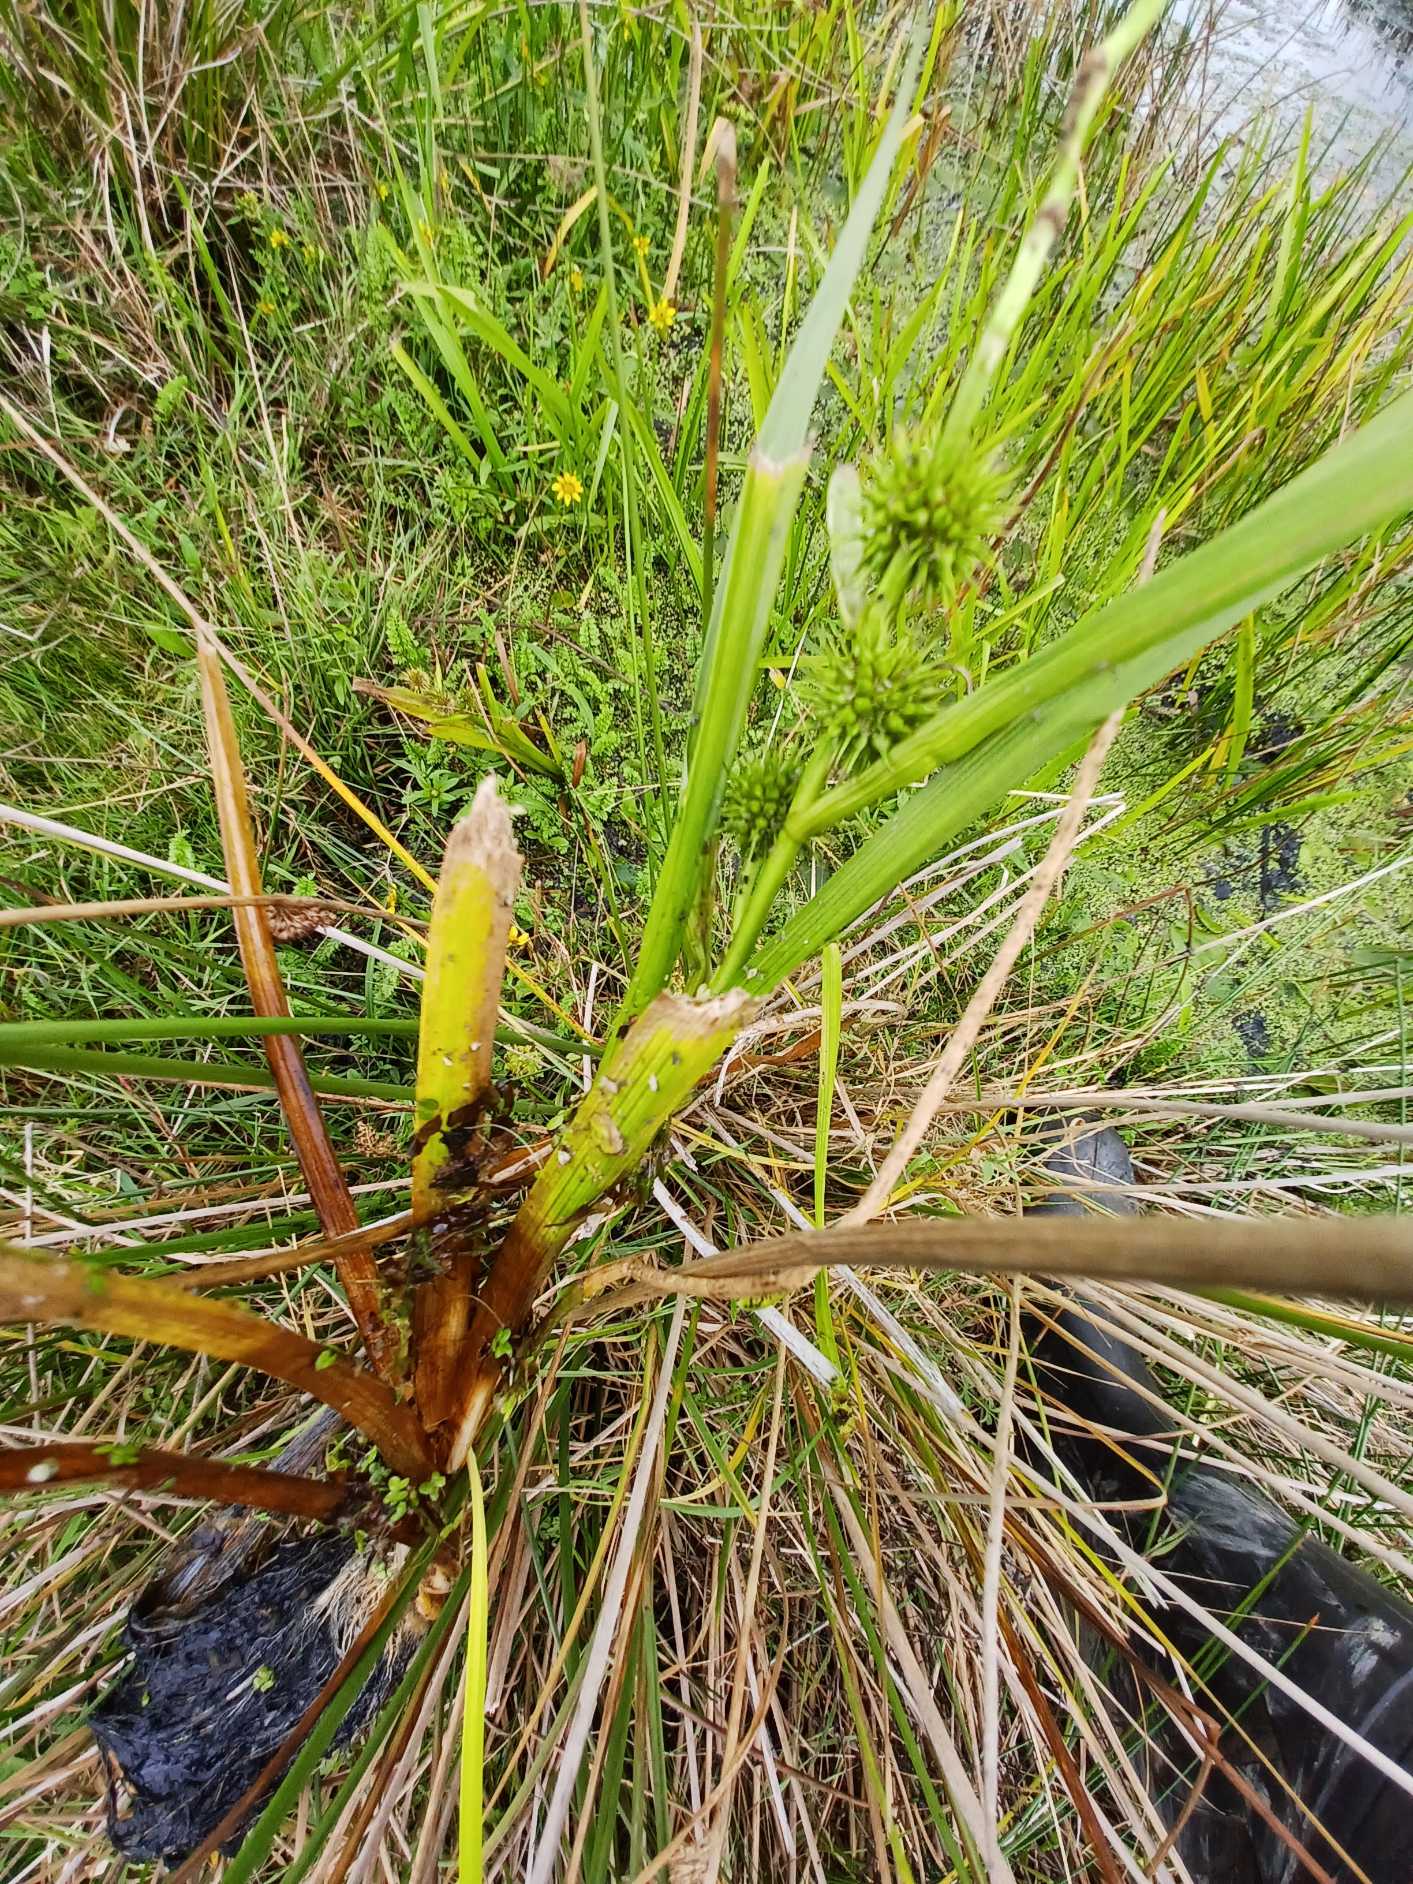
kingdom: Plantae
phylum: Tracheophyta
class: Liliopsida
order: Poales
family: Typhaceae
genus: Sparganium
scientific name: Sparganium erectum
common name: Småfrugtet pindsvineknop
